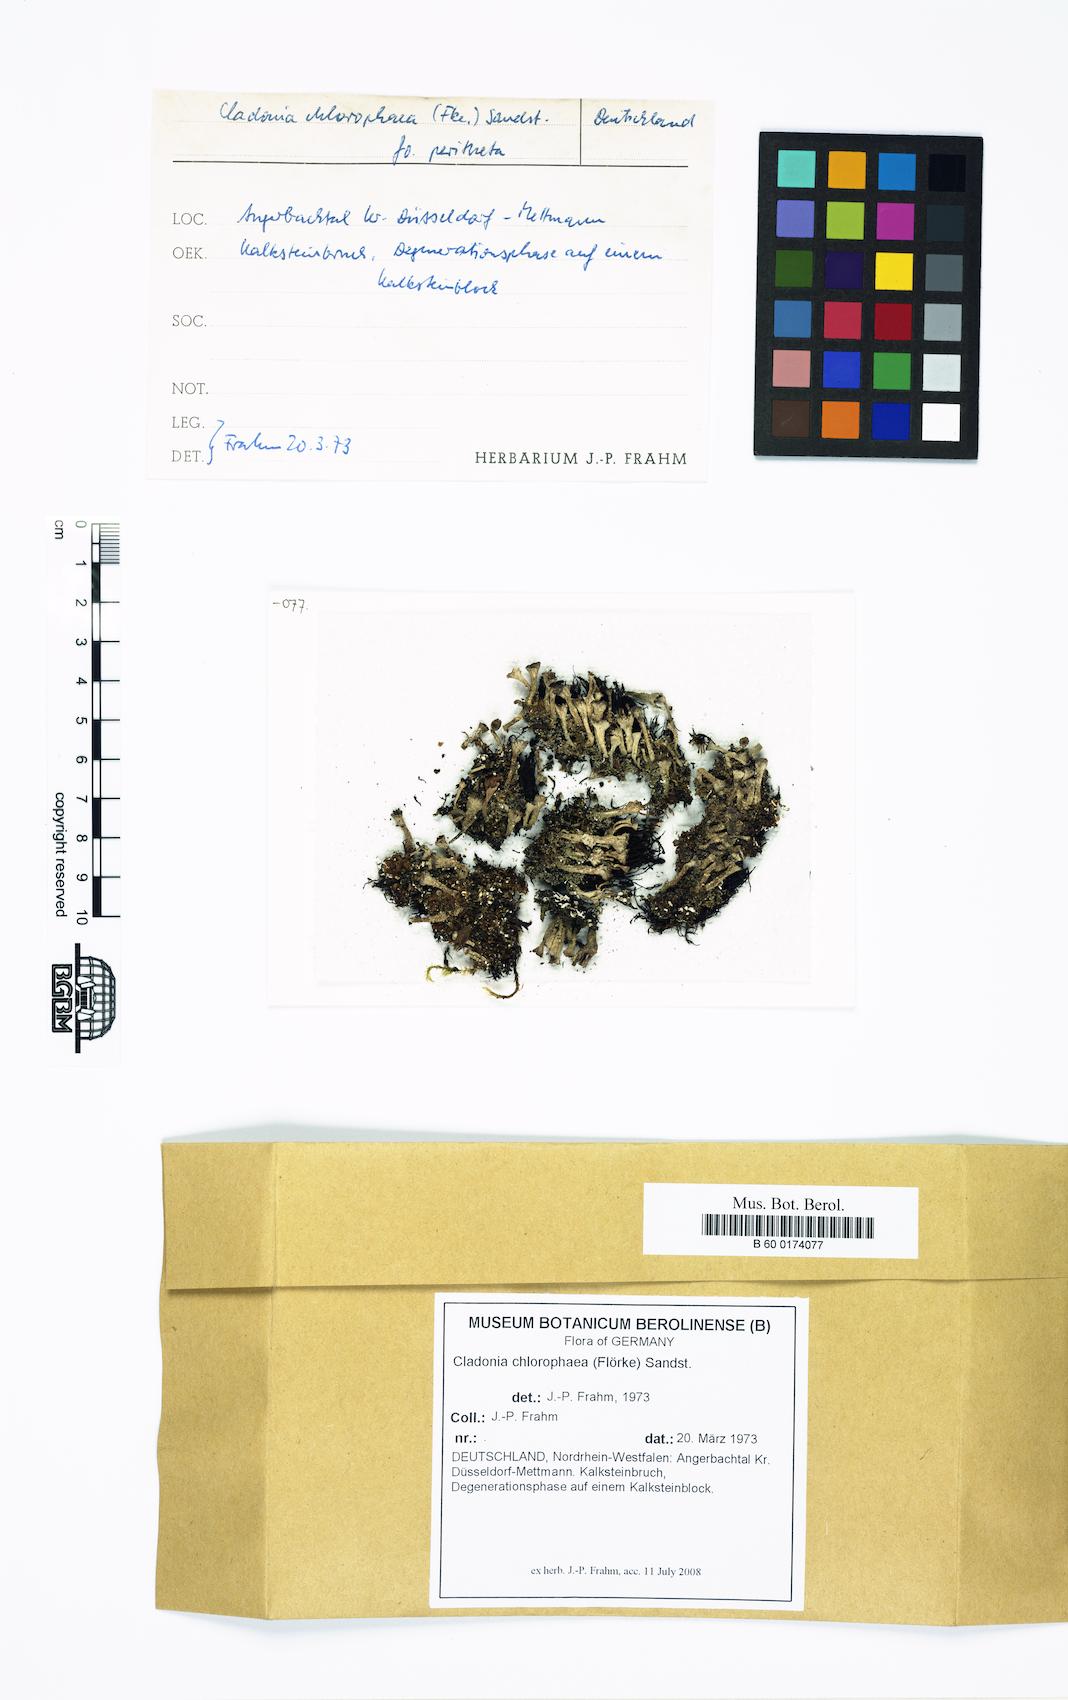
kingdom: Fungi
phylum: Ascomycota
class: Lecanoromycetes
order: Lecanorales
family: Cladoniaceae
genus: Cladonia
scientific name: Cladonia chlorophaea
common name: Mealy pixie cup
